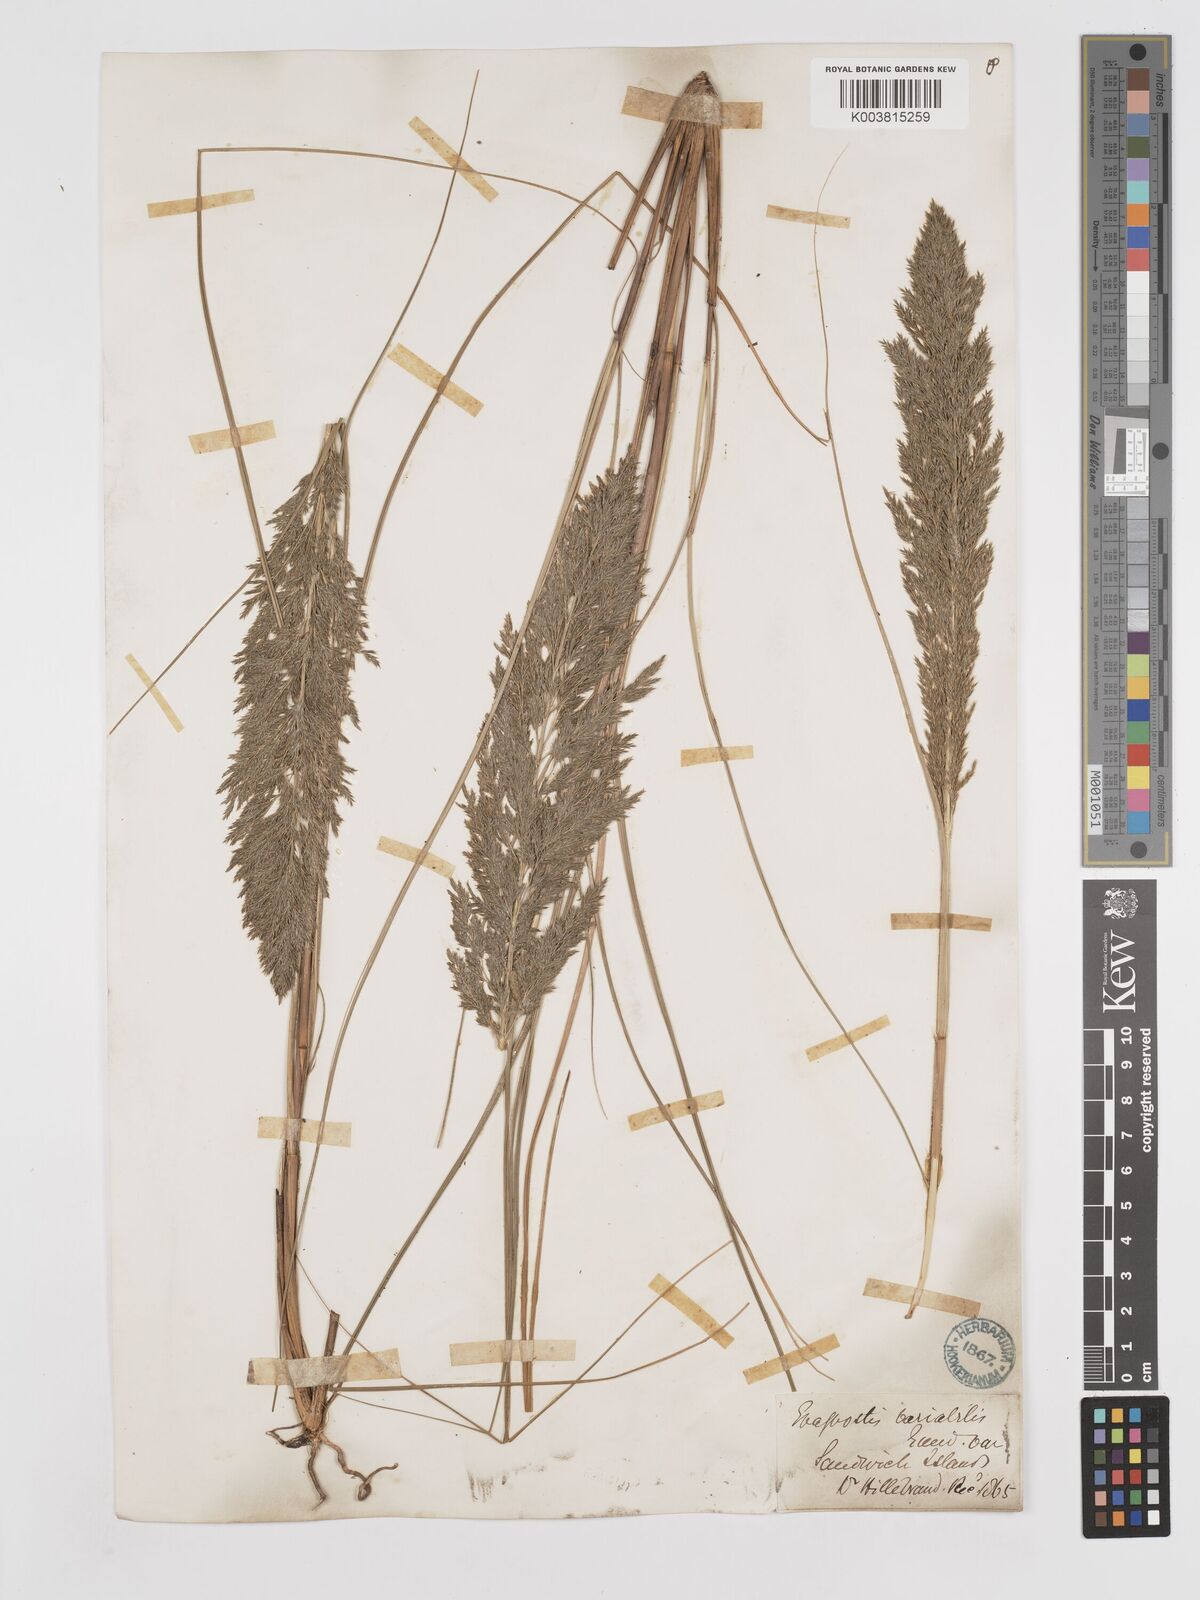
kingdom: Plantae
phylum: Tracheophyta
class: Liliopsida
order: Poales
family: Poaceae
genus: Eragrostis
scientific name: Eragrostis variabilis
